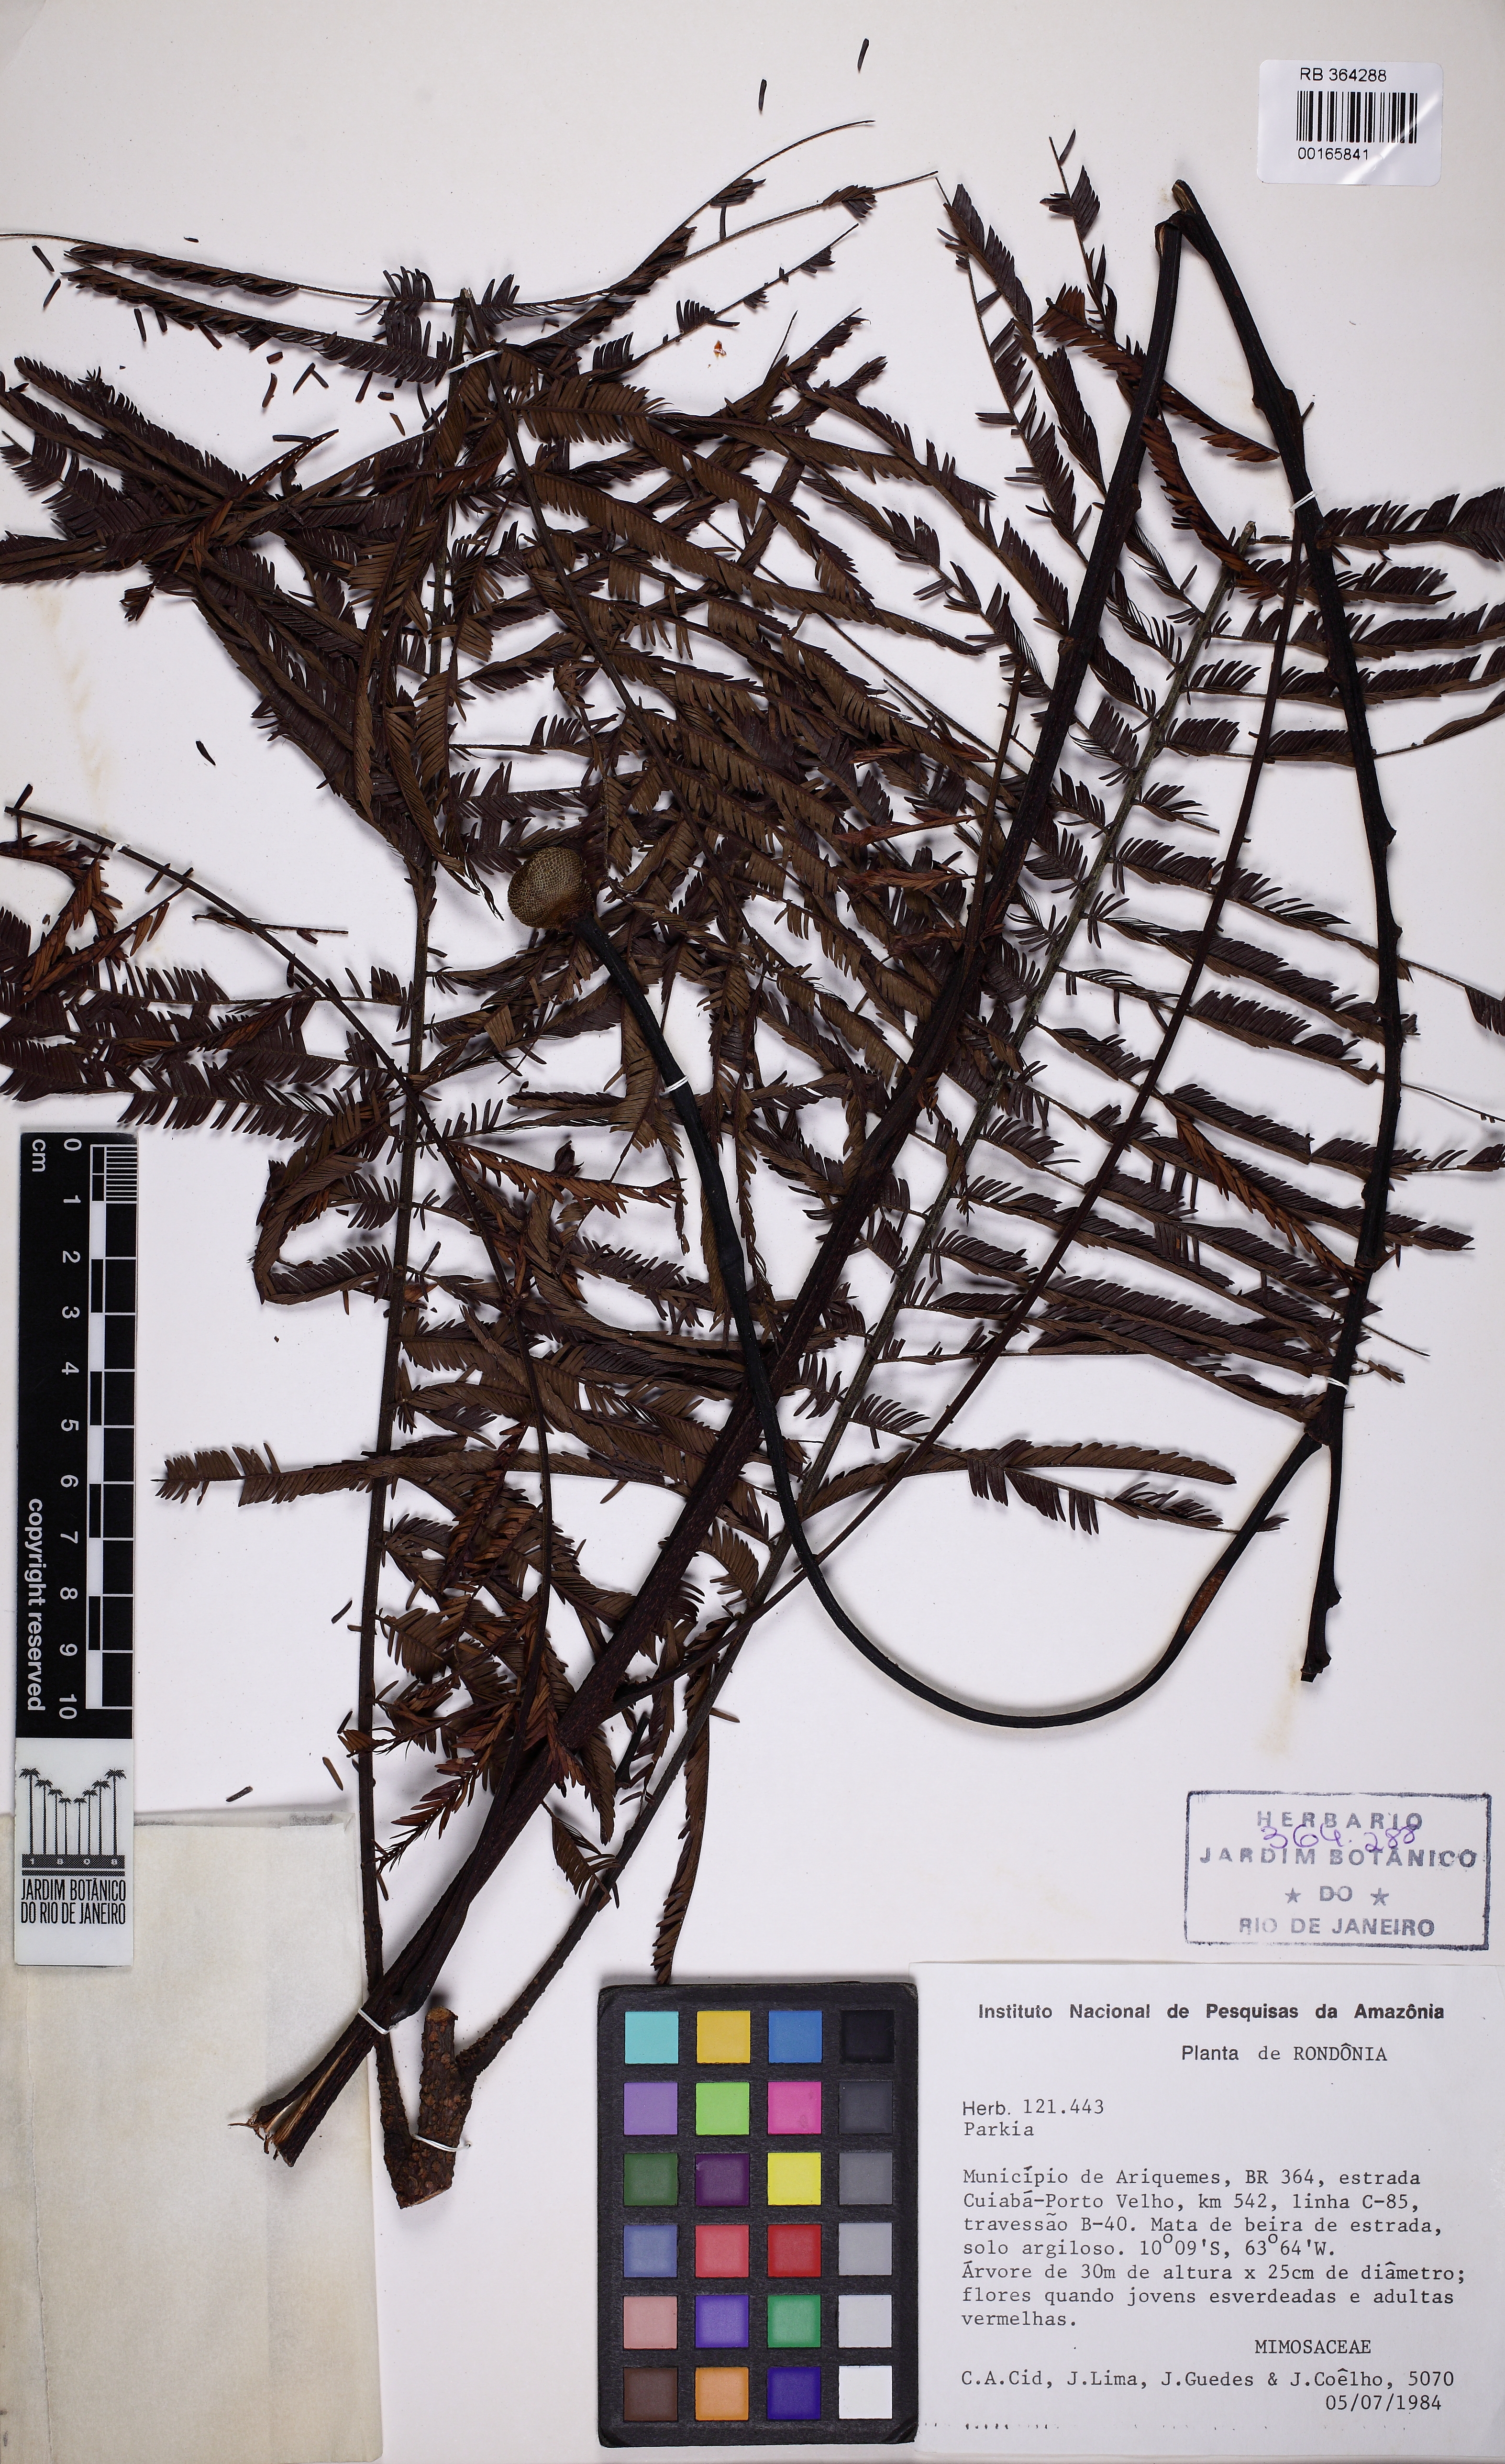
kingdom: Plantae
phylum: Tracheophyta
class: Magnoliopsida
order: Fabales
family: Fabaceae
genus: Parkia
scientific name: Parkia pendula
